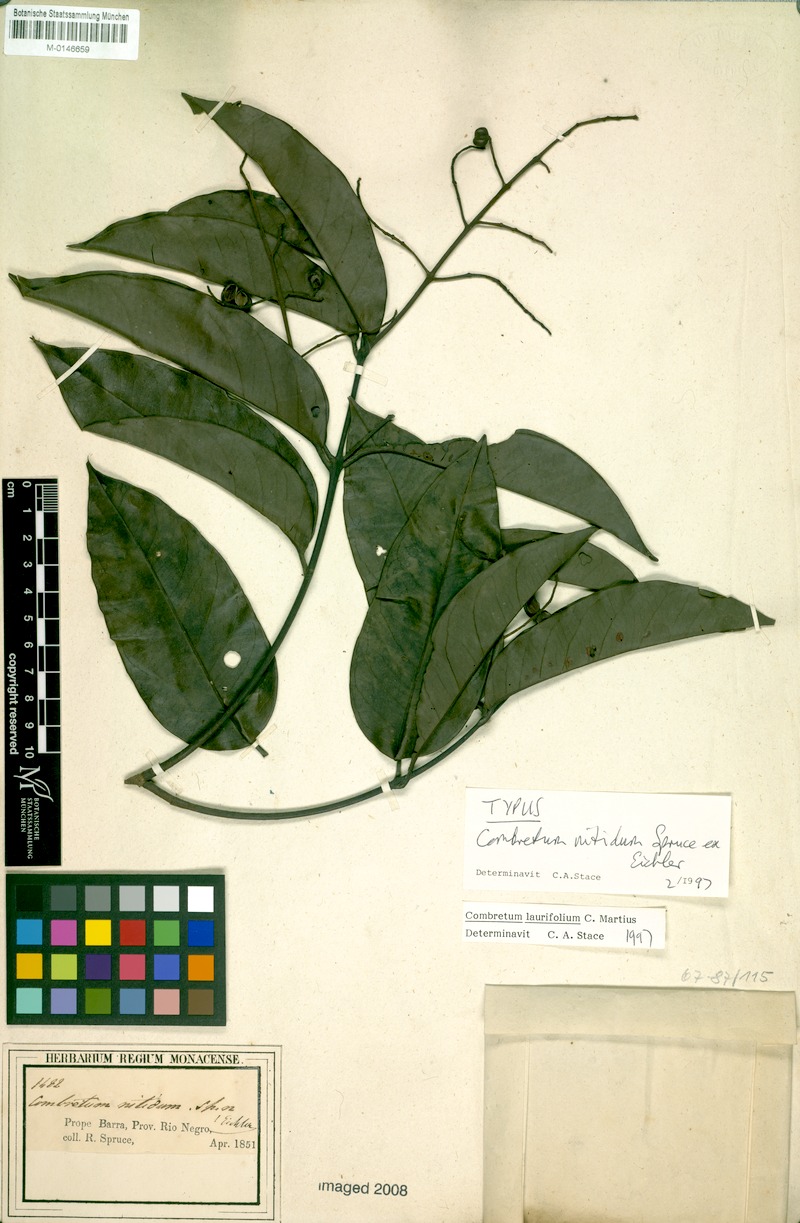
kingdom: Plantae
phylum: Tracheophyta
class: Magnoliopsida
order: Myrtales
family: Combretaceae
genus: Combretum
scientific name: Combretum laurifolium
